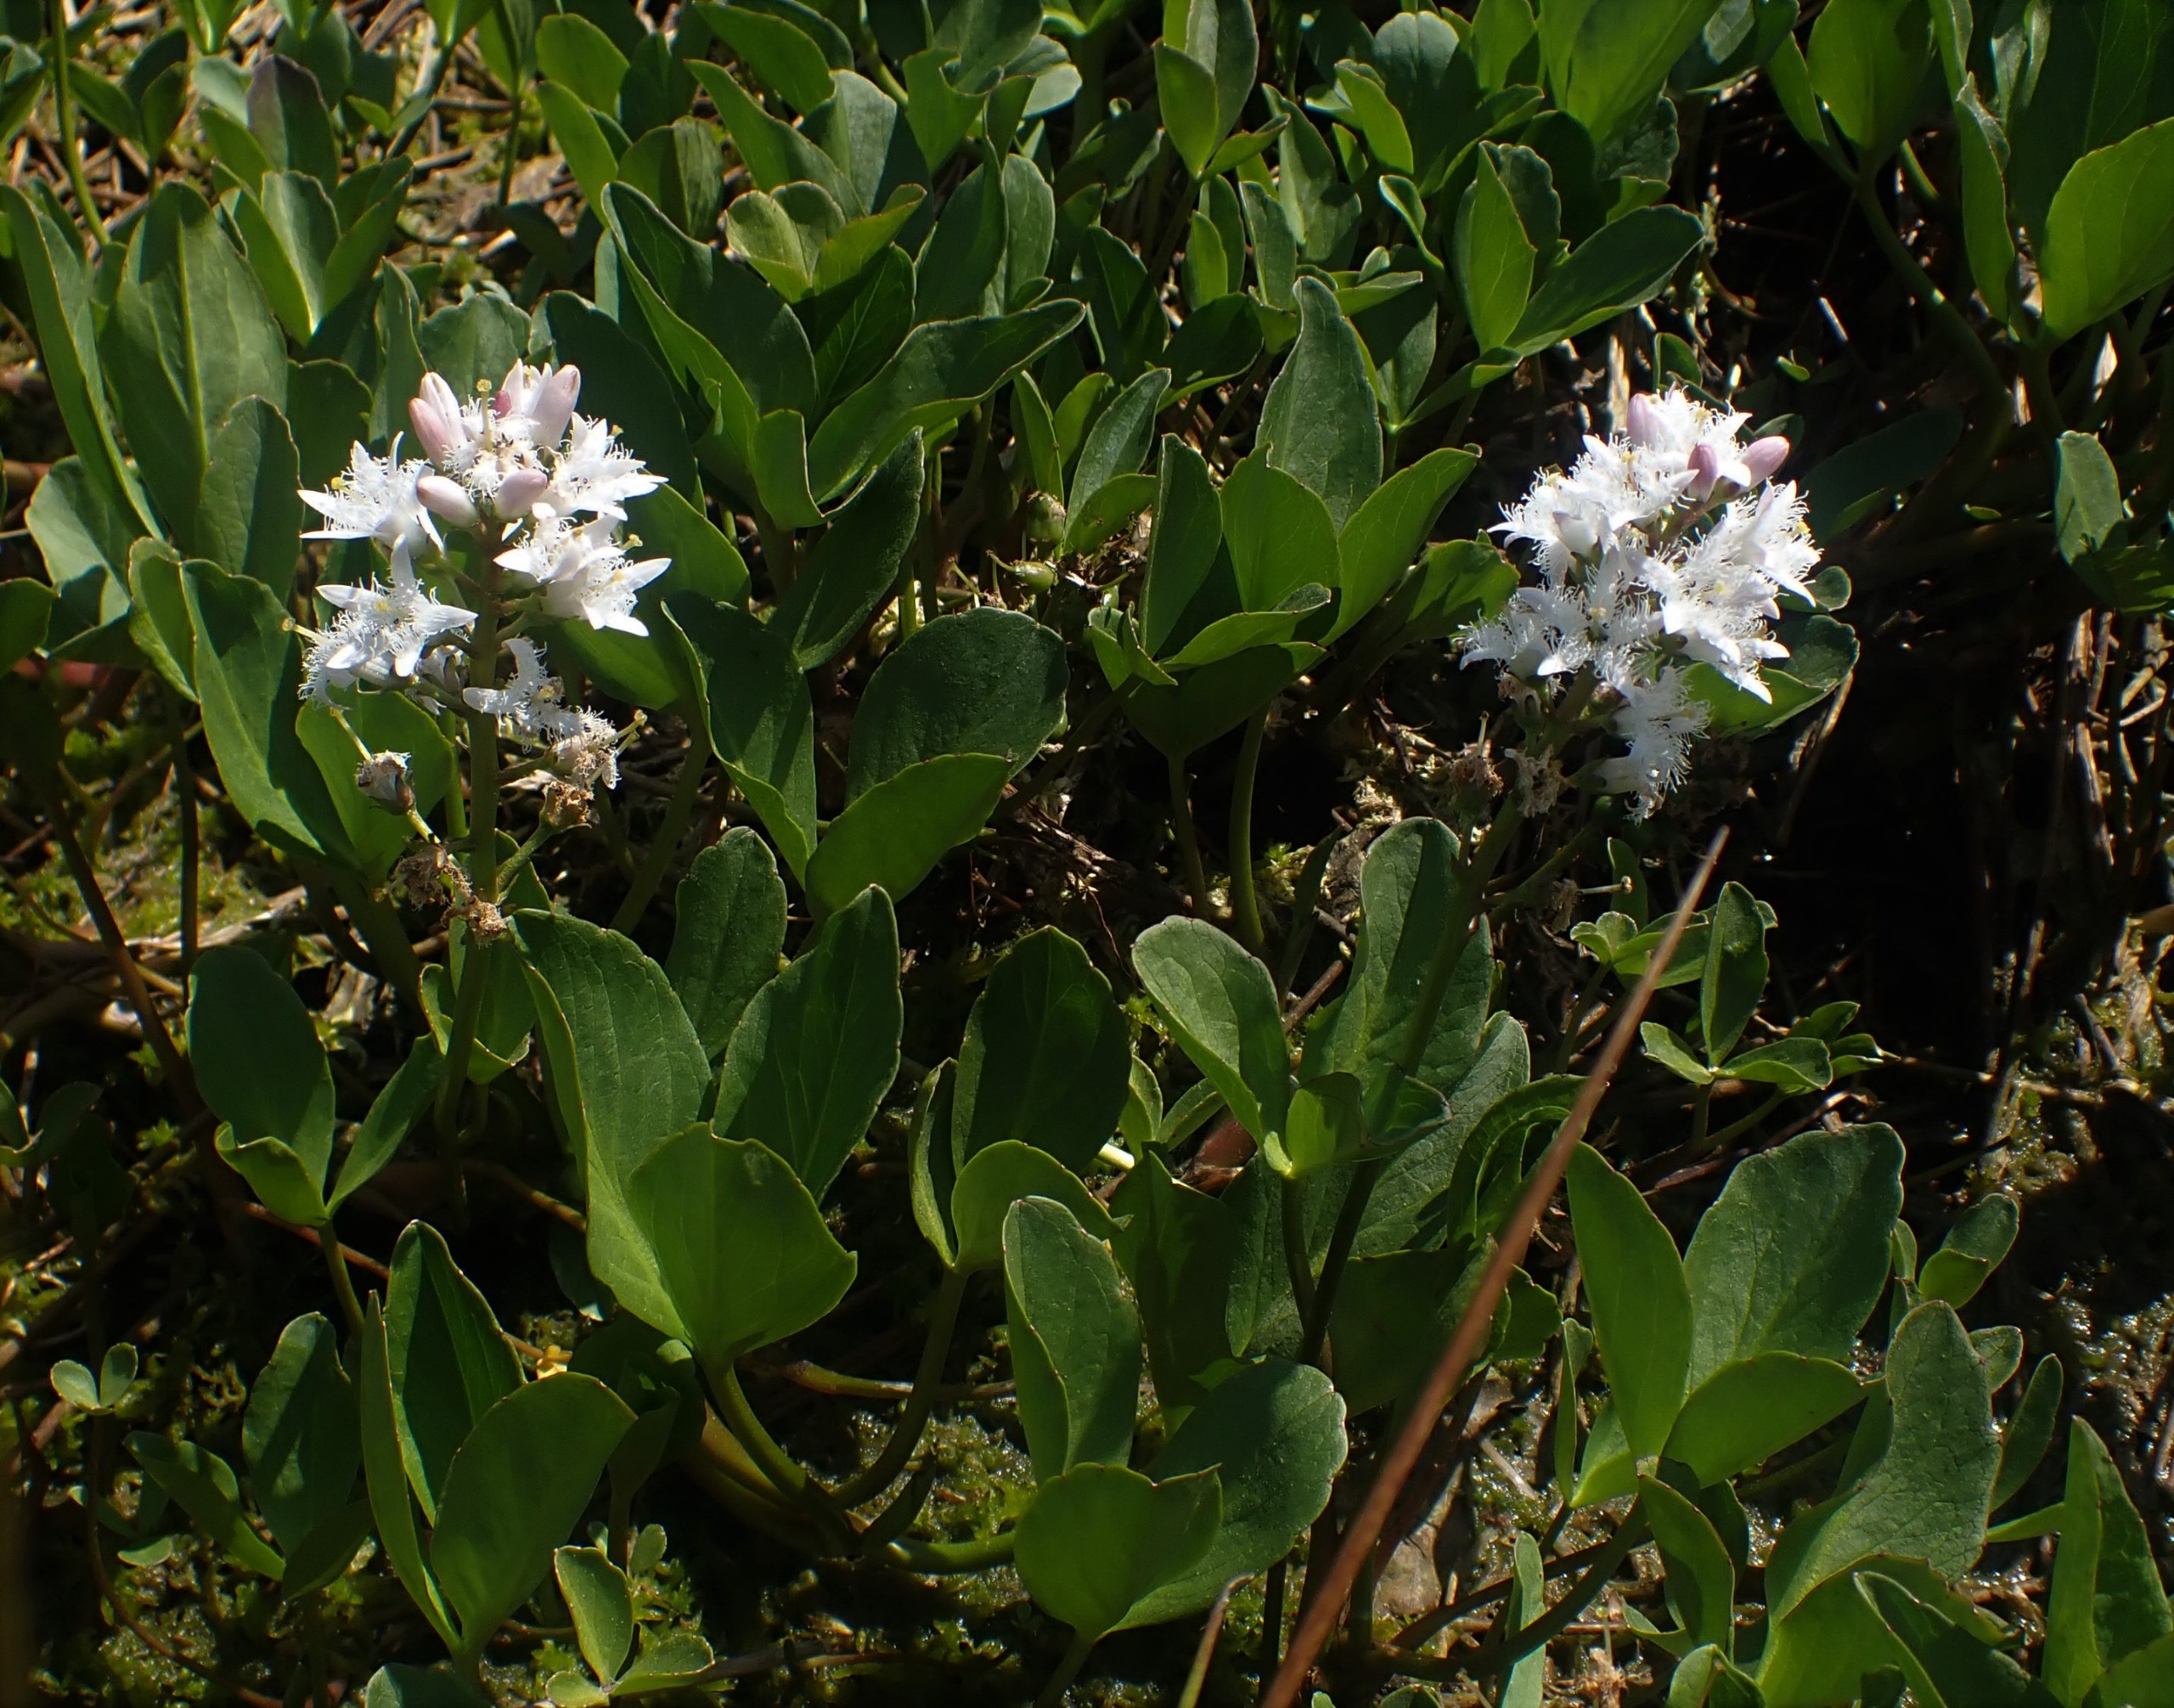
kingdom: Plantae
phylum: Tracheophyta
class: Magnoliopsida
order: Asterales
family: Menyanthaceae
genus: Menyanthes
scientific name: Menyanthes trifoliata
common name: Bukkeblad
